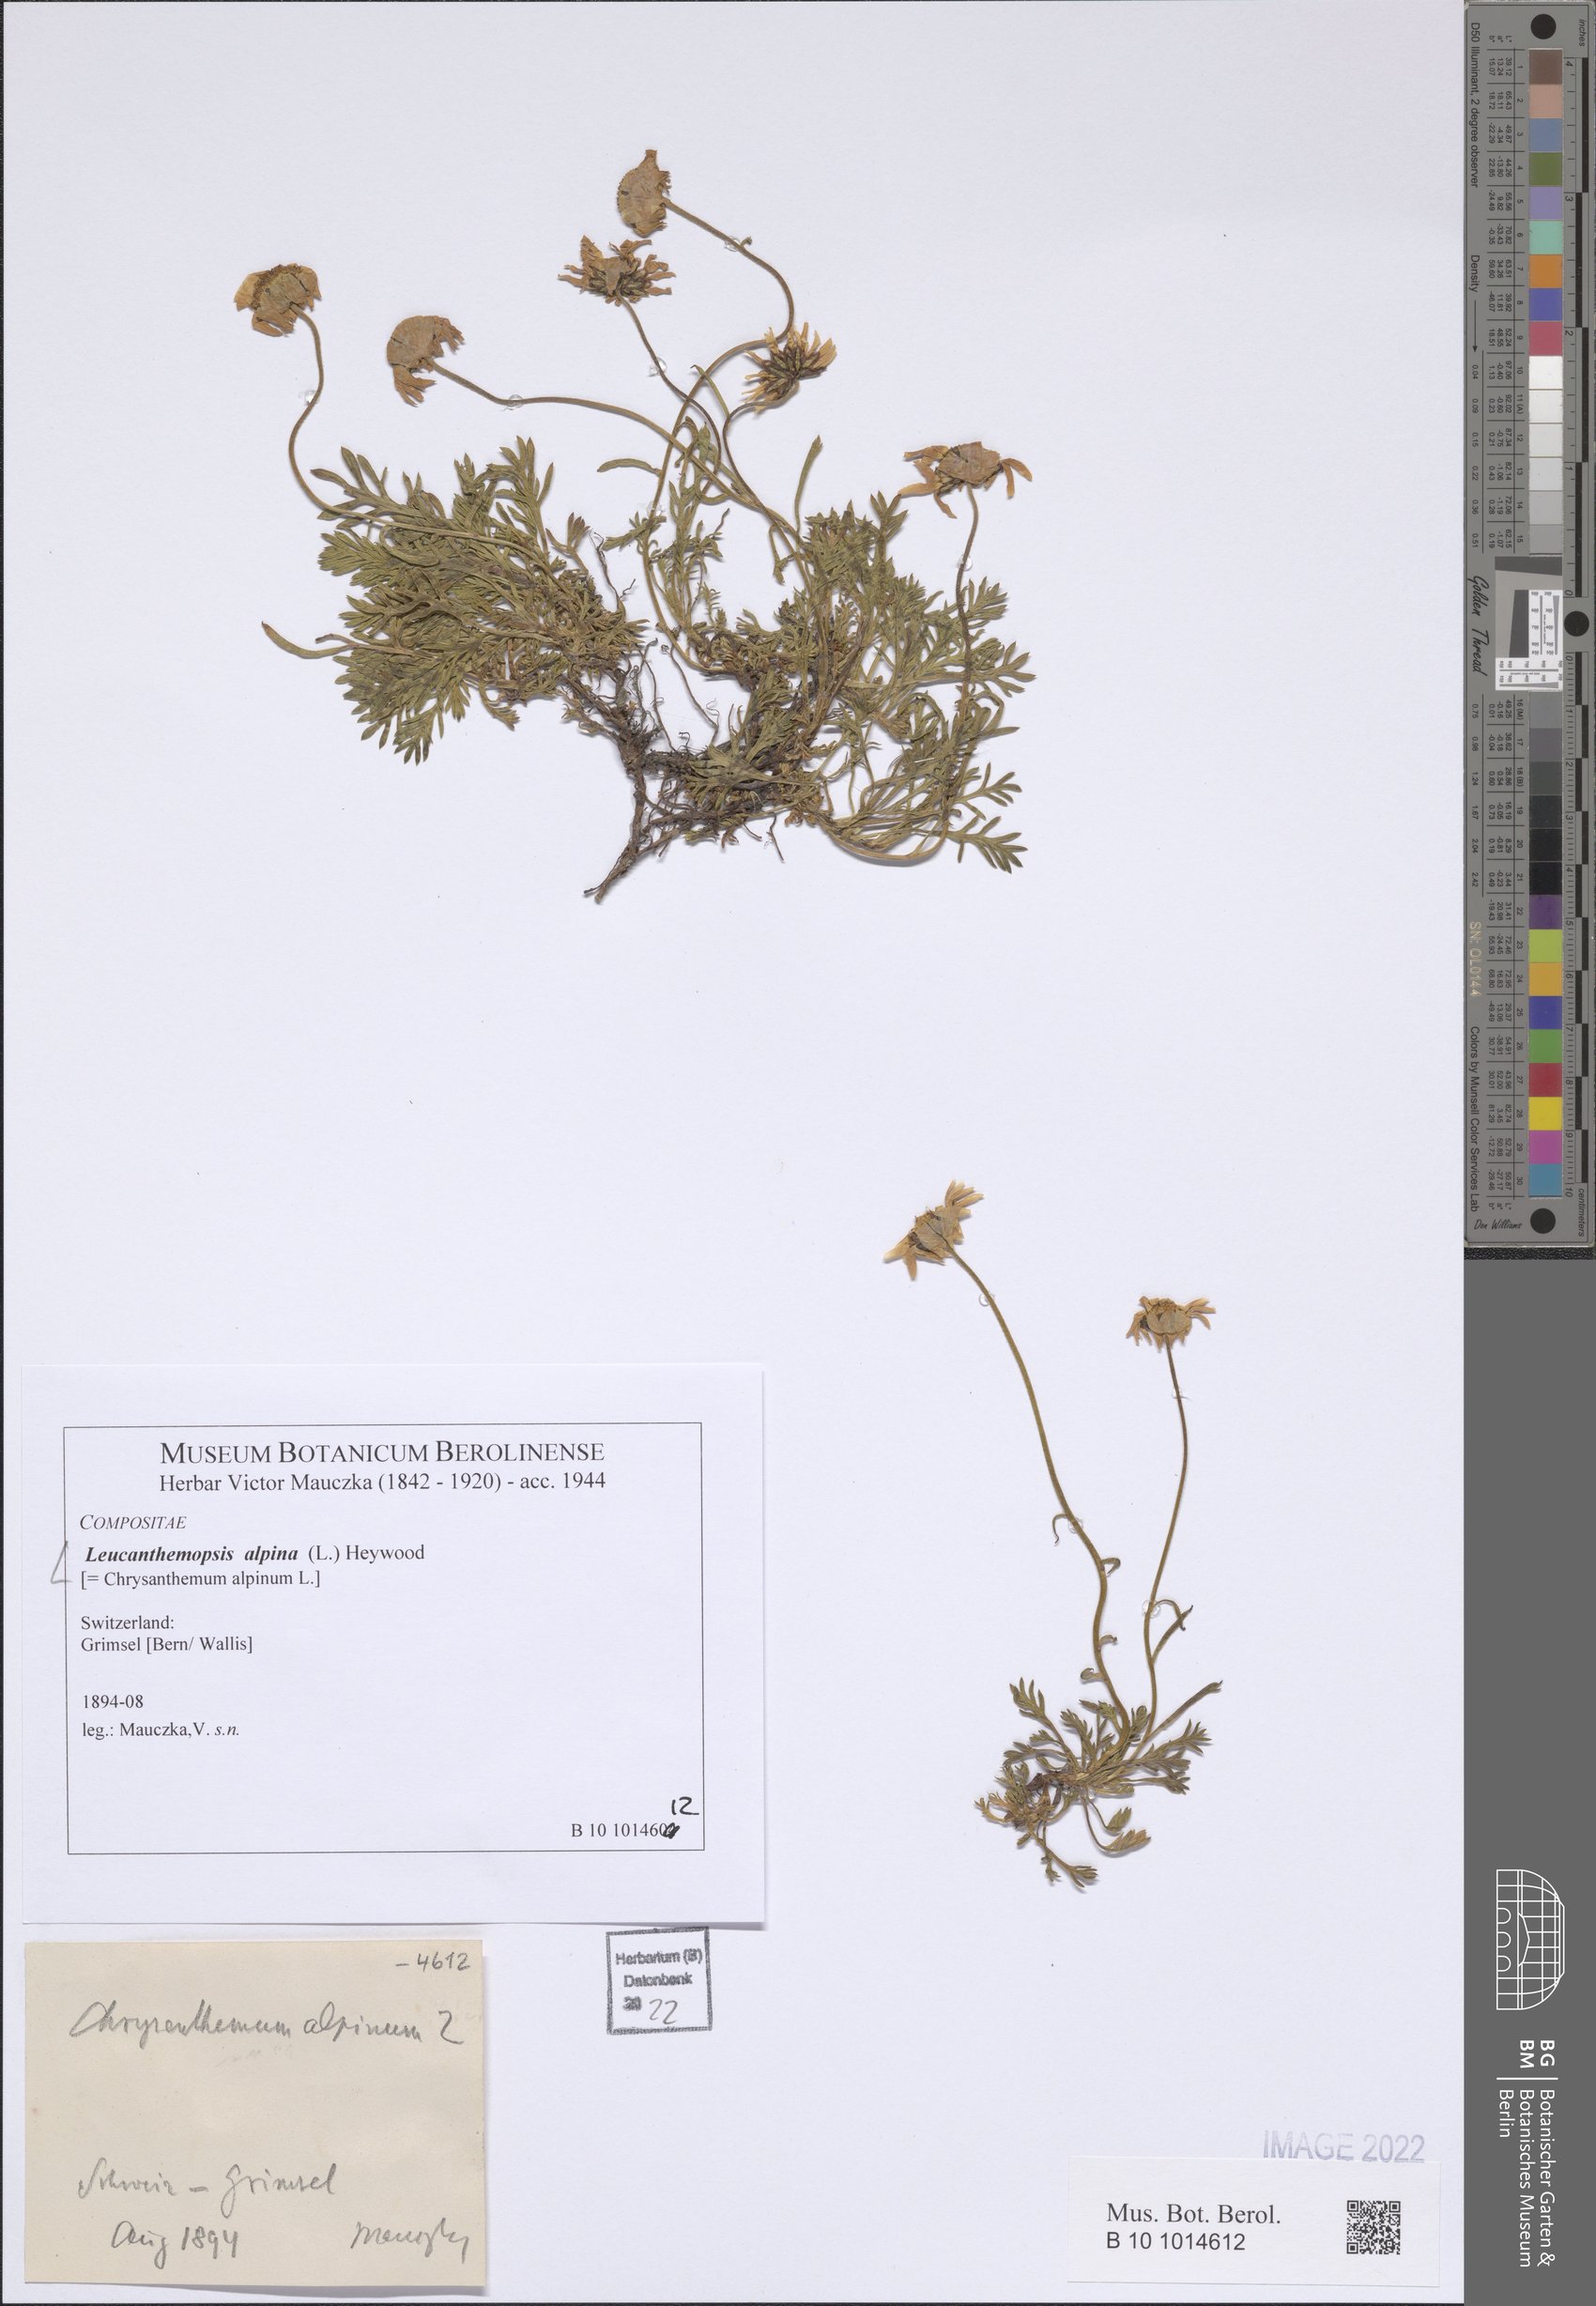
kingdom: Plantae
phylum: Tracheophyta
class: Magnoliopsida
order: Asterales
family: Asteraceae
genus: Leucanthemopsis
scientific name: Leucanthemopsis alpina
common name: Alpine moon daisy
